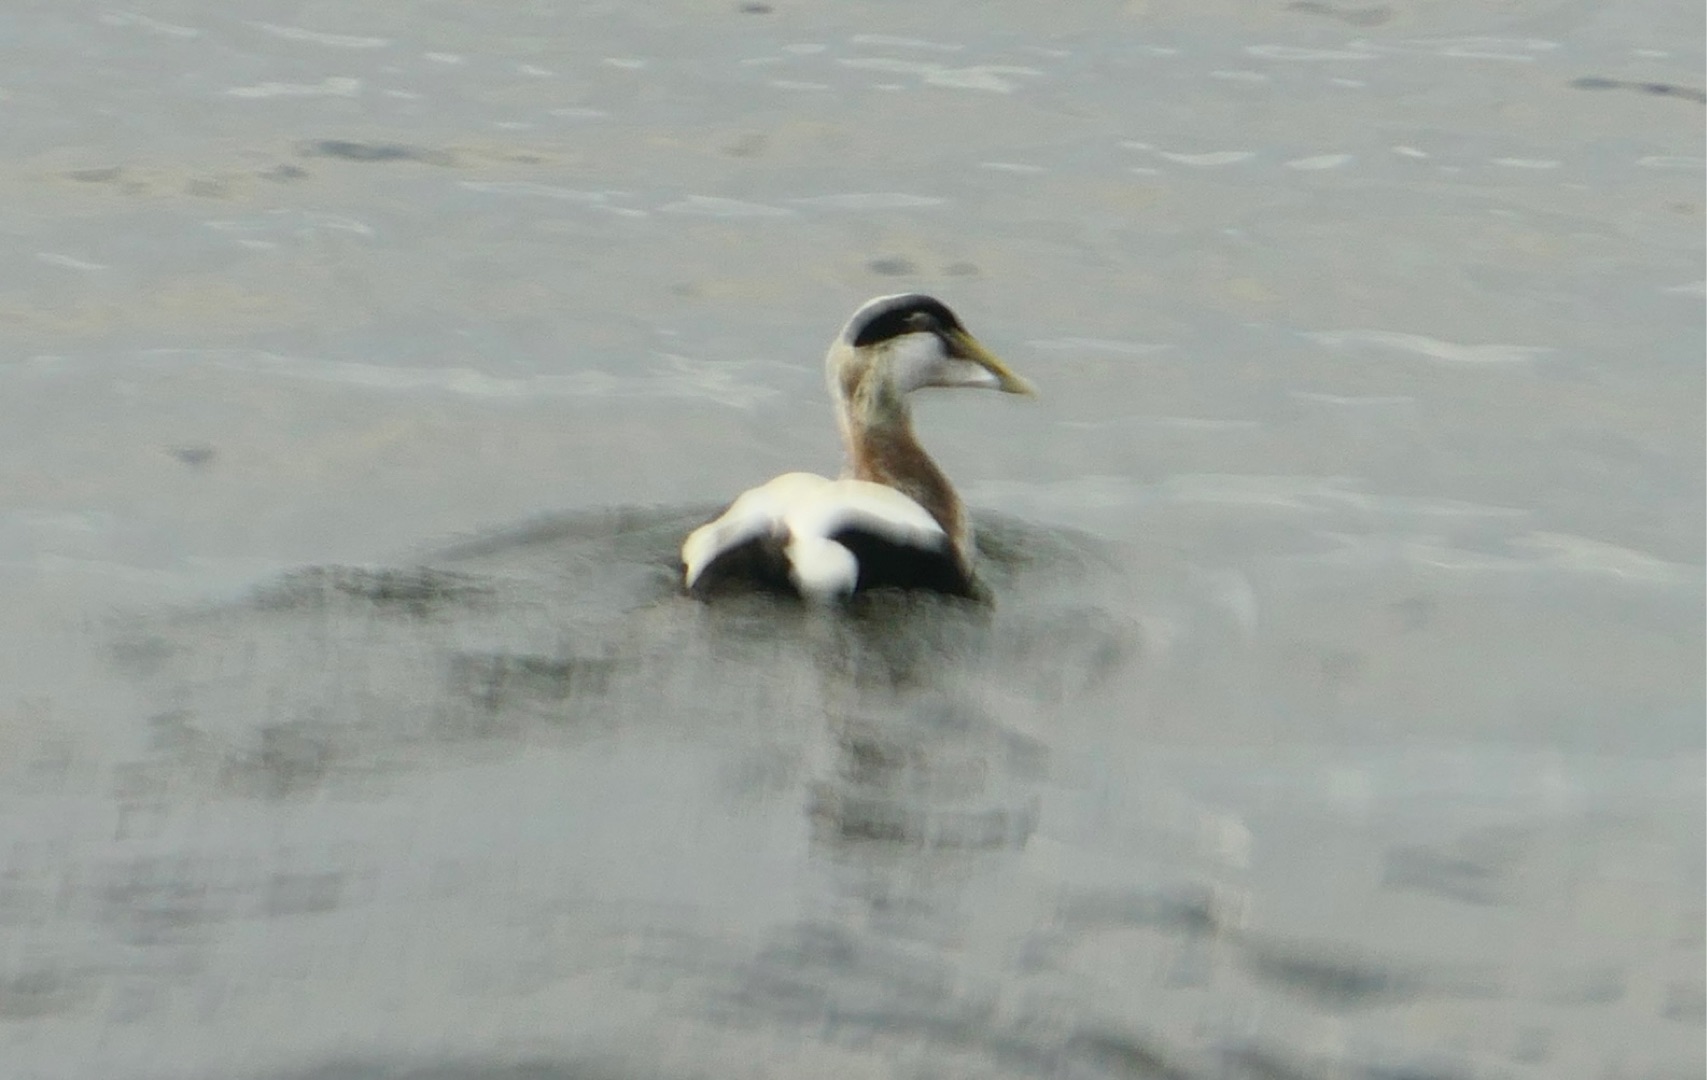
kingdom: Animalia
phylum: Chordata
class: Aves
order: Anseriformes
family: Anatidae
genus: Somateria
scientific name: Somateria mollissima
